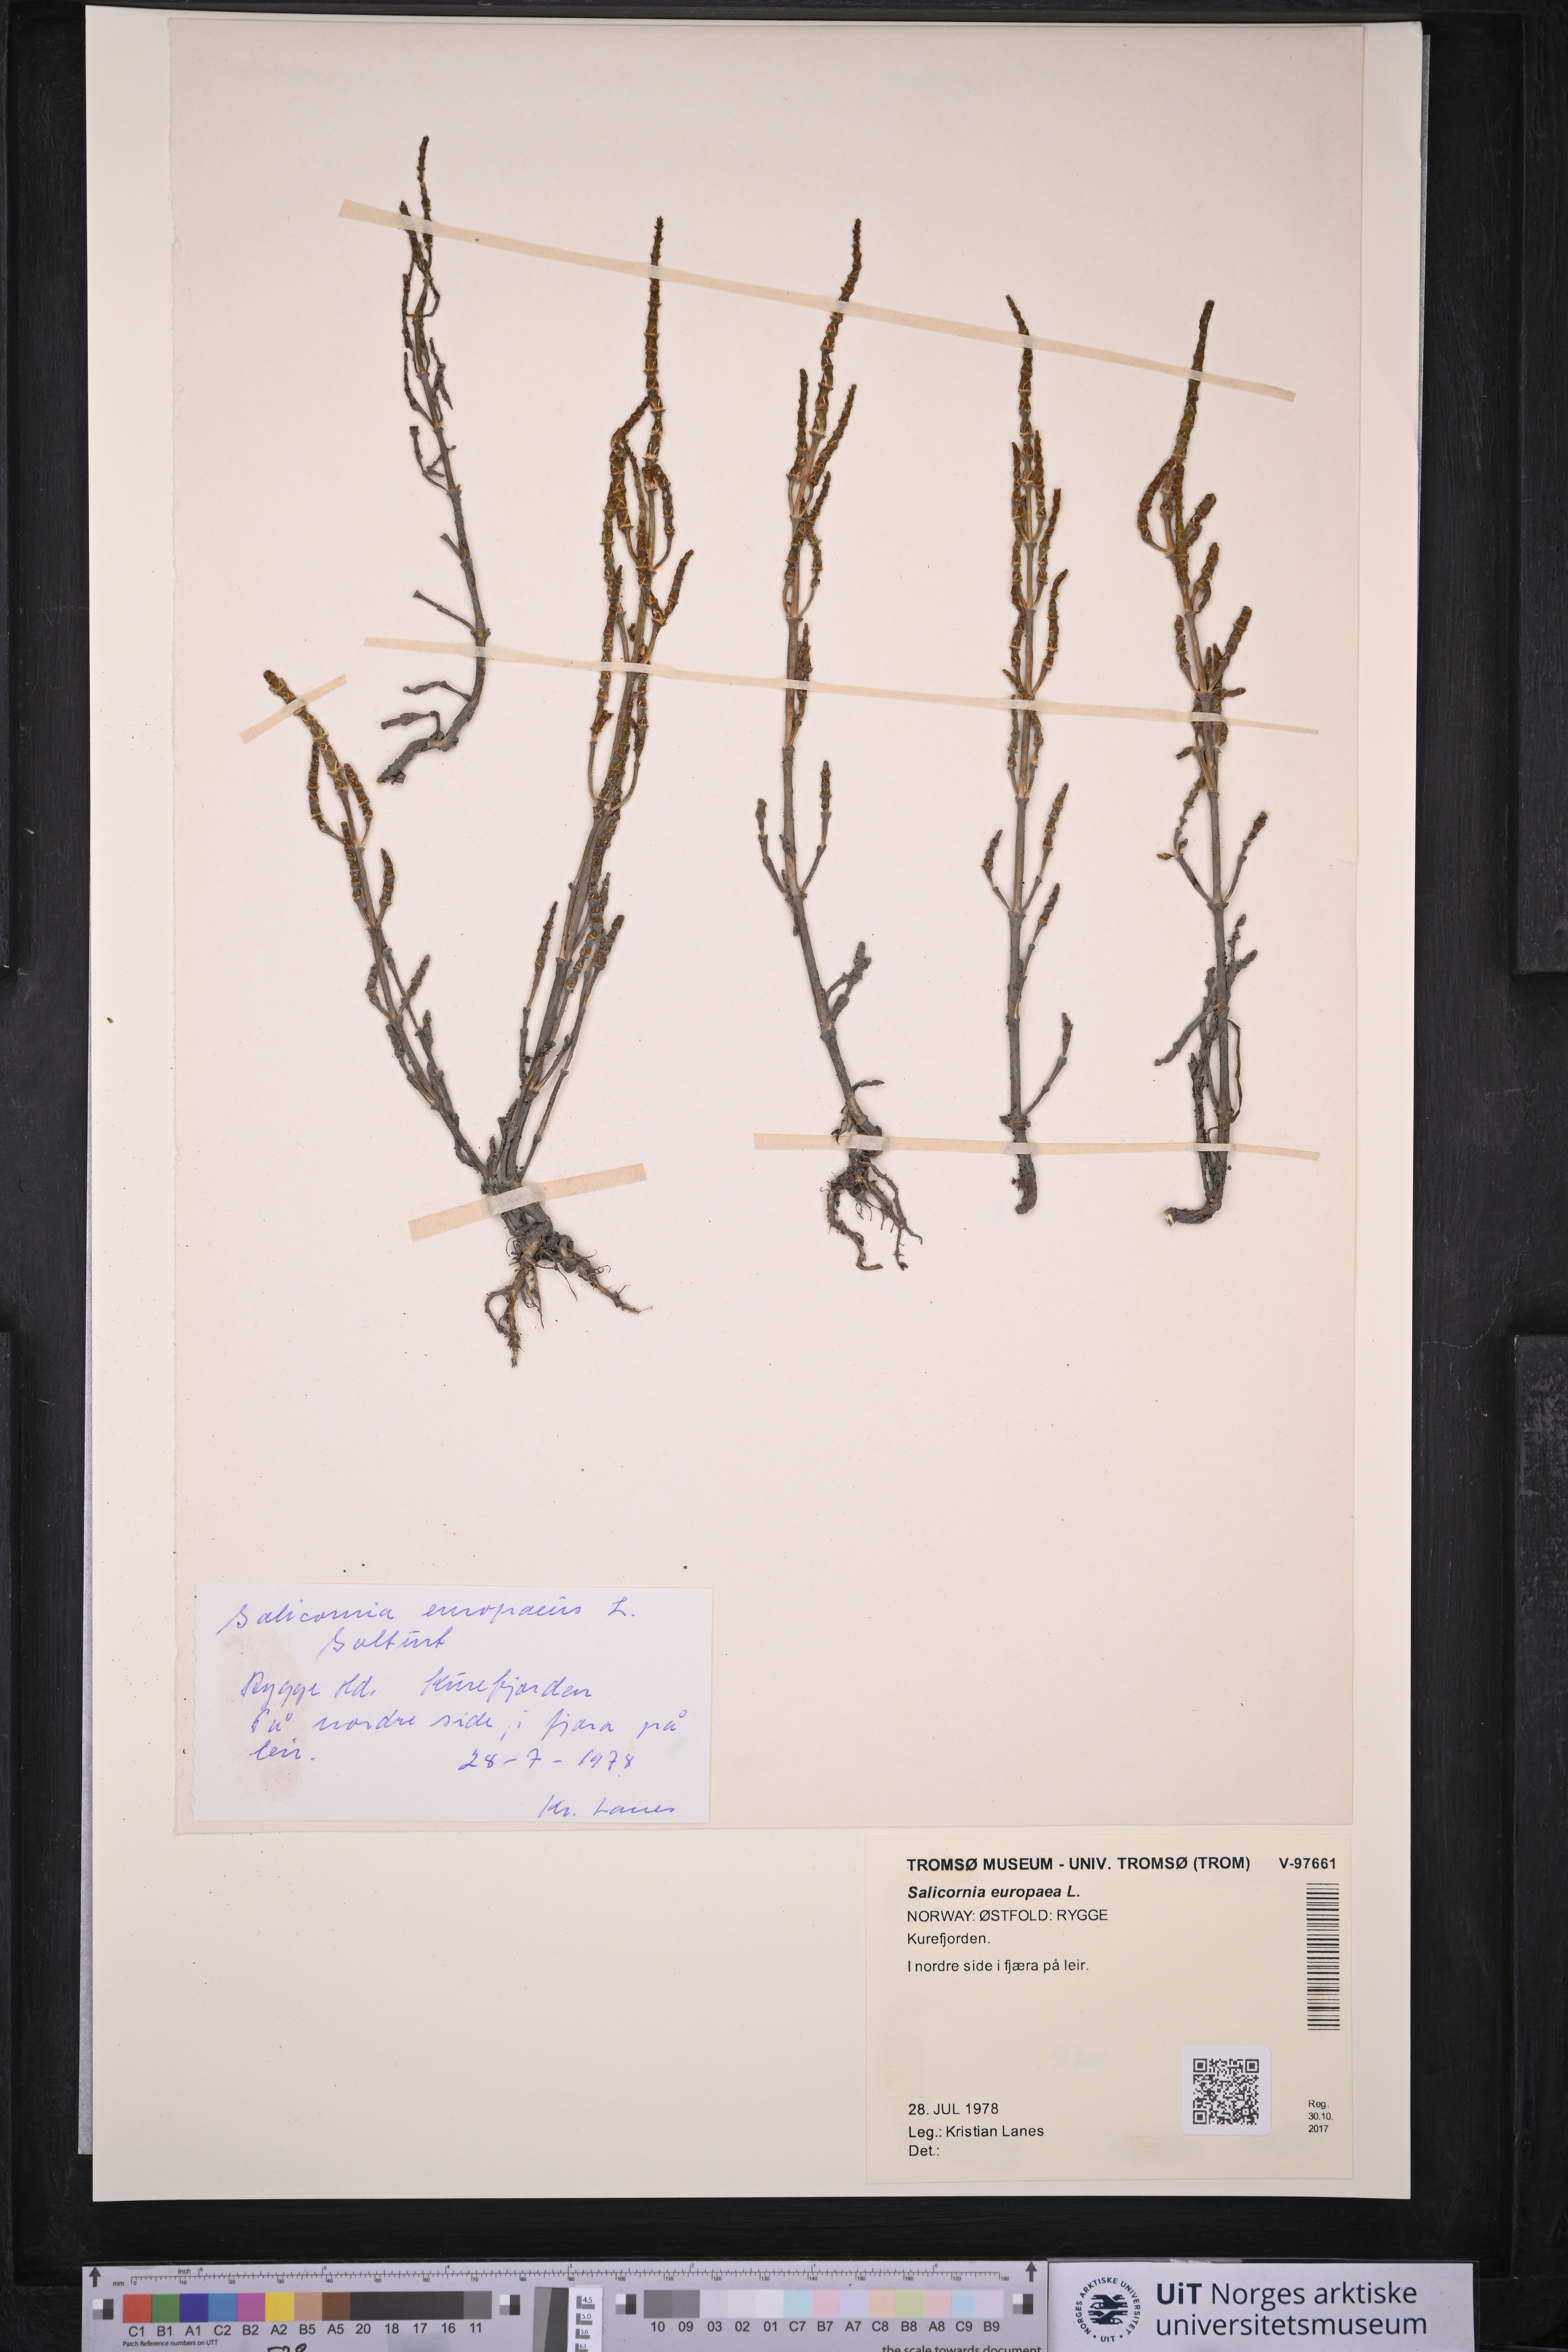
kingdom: Plantae
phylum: Tracheophyta
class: Magnoliopsida
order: Caryophyllales
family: Amaranthaceae
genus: Salicornia
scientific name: Salicornia europaea
